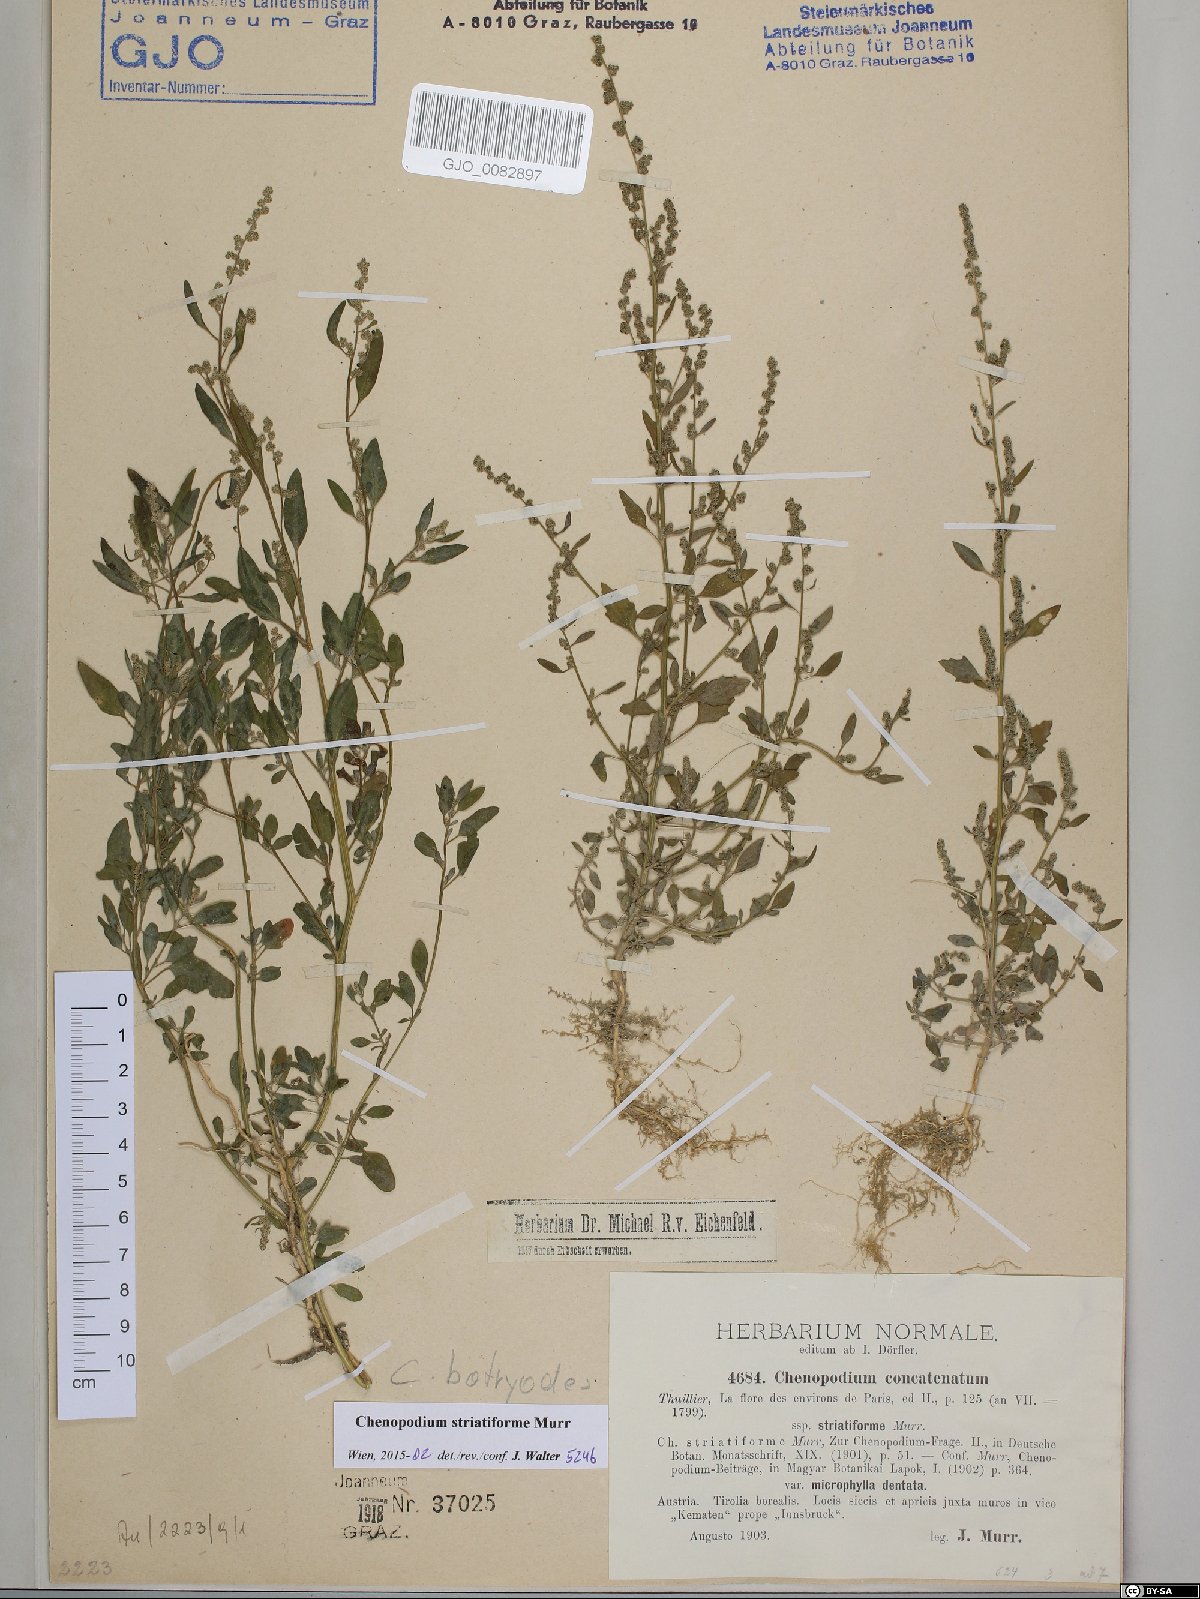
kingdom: Plantae
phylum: Tracheophyta
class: Magnoliopsida
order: Caryophyllales
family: Amaranthaceae
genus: Chenopodium
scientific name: Chenopodium striatiforme
